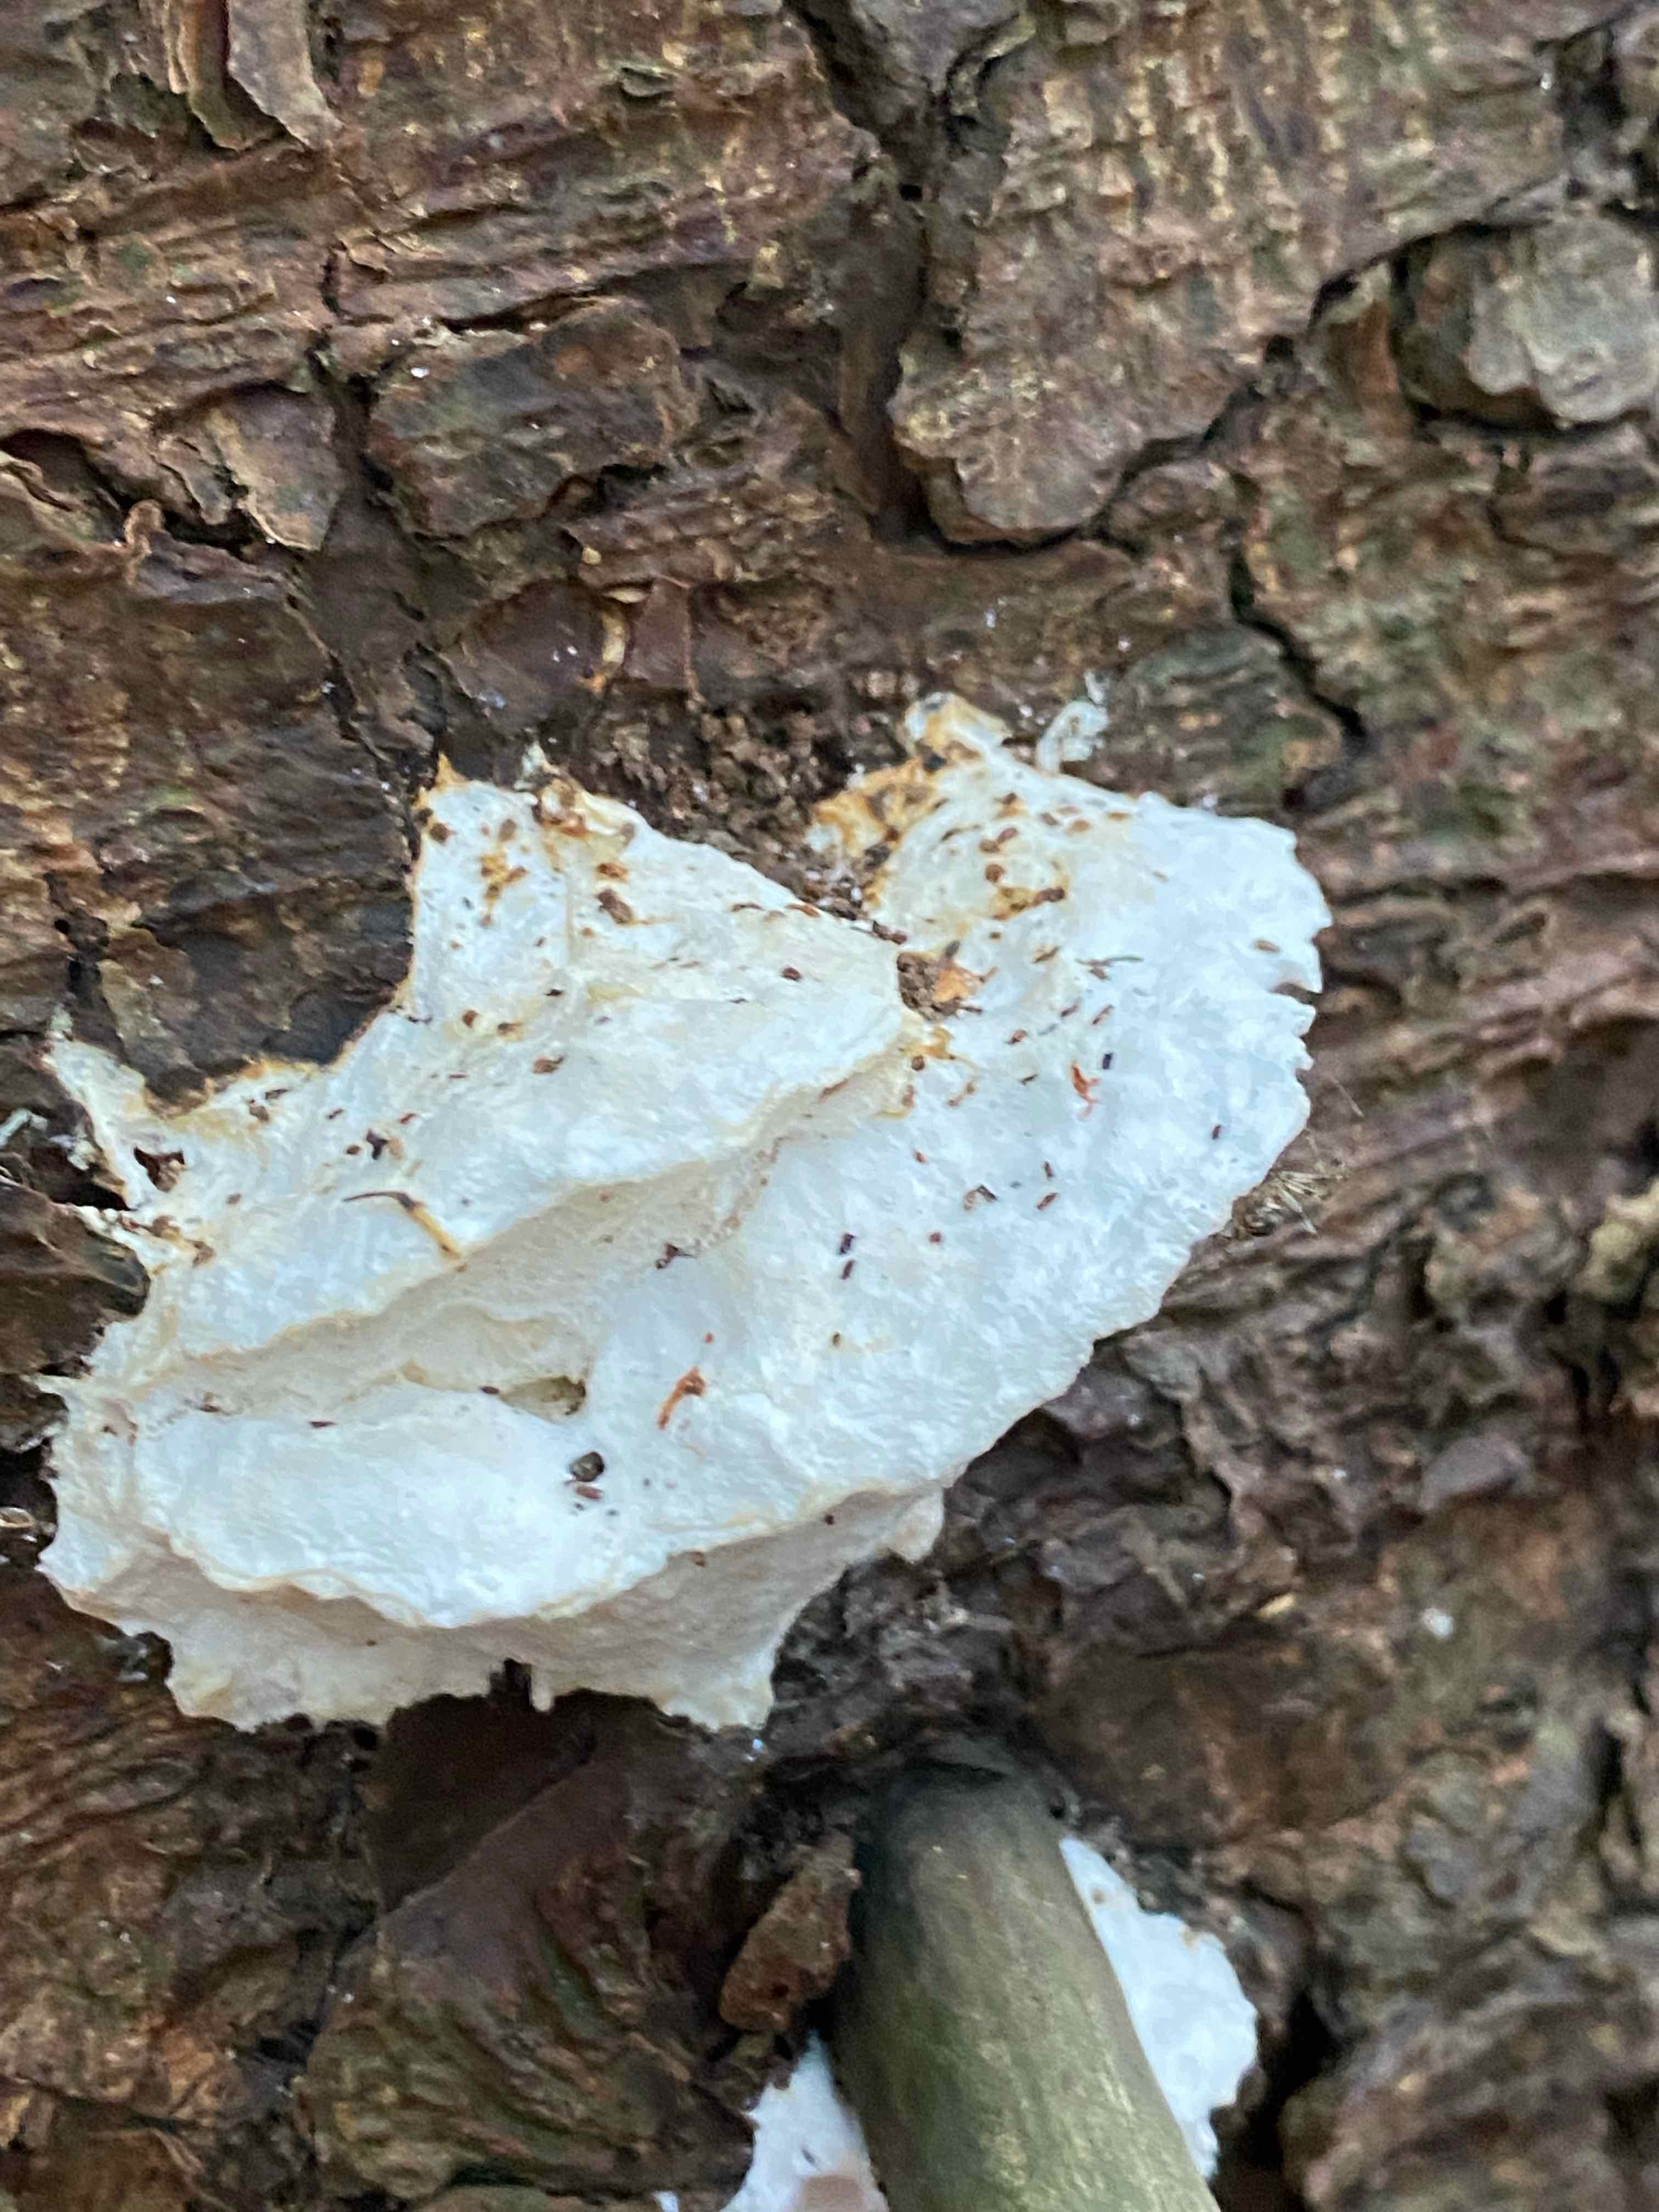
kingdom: Fungi
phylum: Basidiomycota
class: Agaricomycetes
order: Polyporales
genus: Amaropostia
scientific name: Amaropostia stiptica
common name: bitter kødporesvamp
